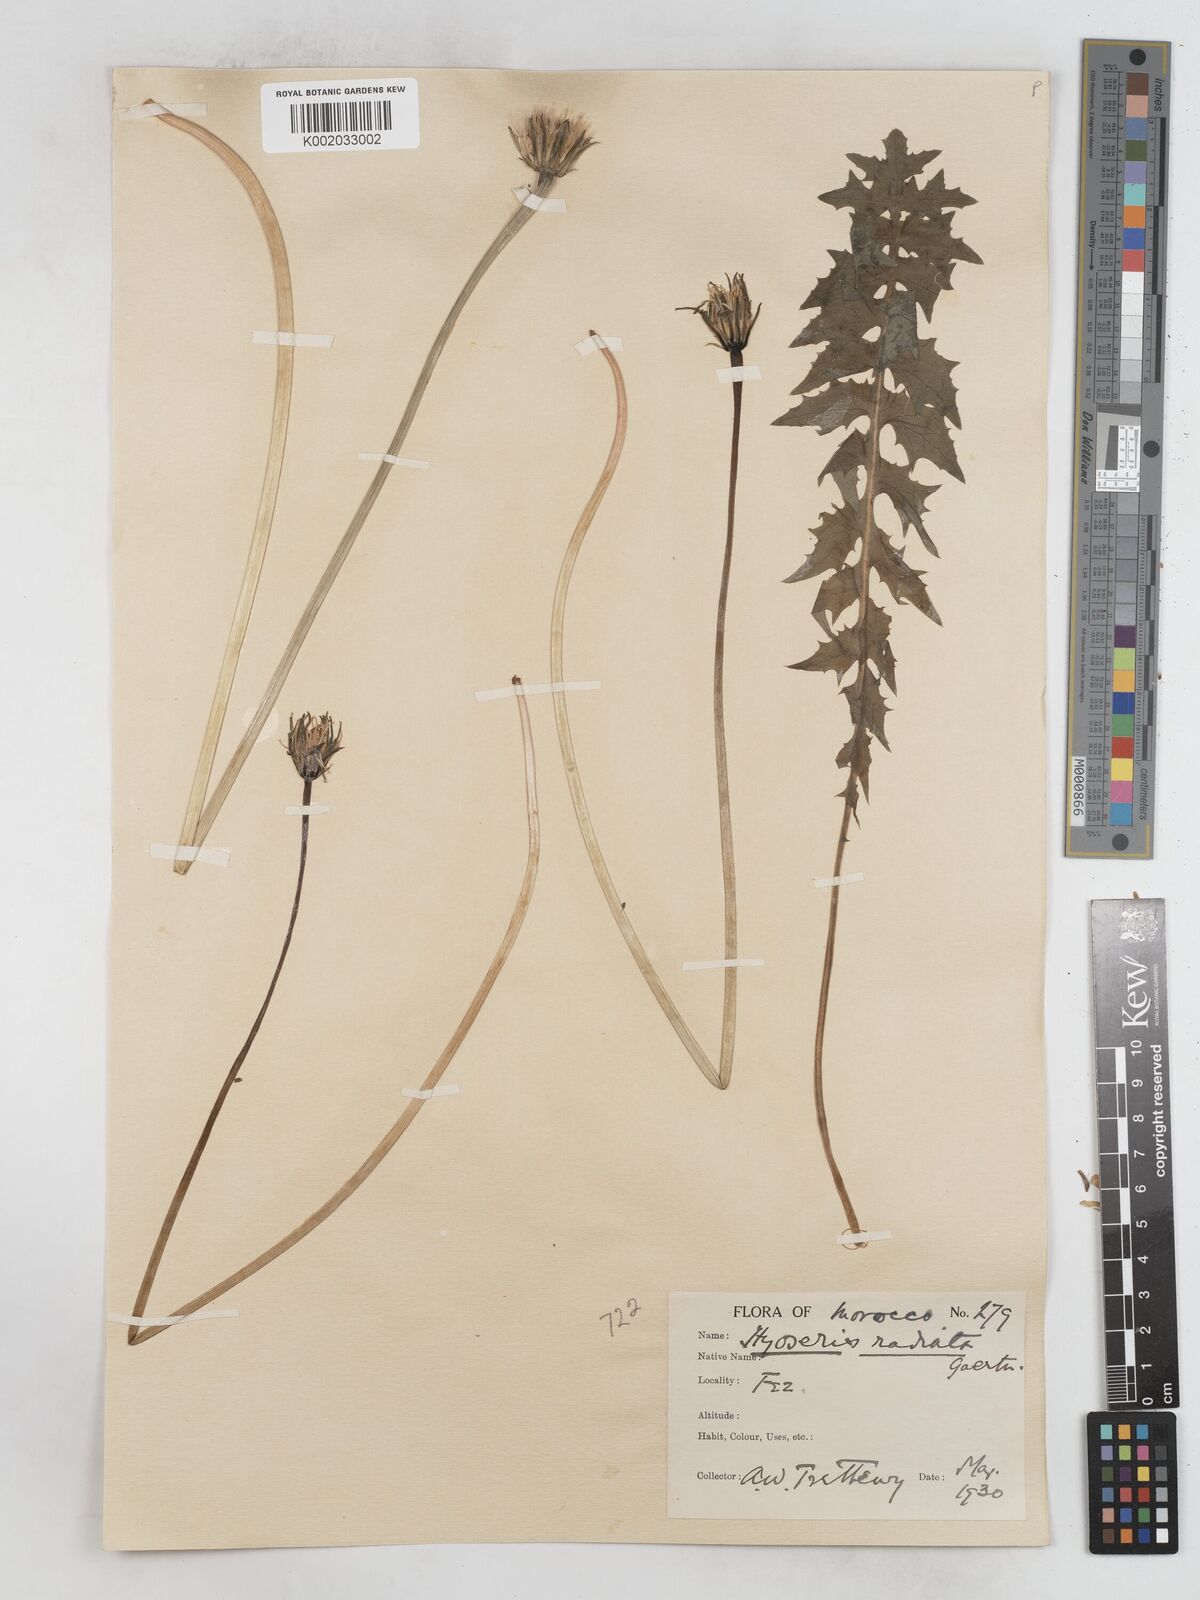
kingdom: Plantae
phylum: Tracheophyta
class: Magnoliopsida
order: Asterales
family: Asteraceae
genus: Hyoseris
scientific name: Hyoseris radiata
